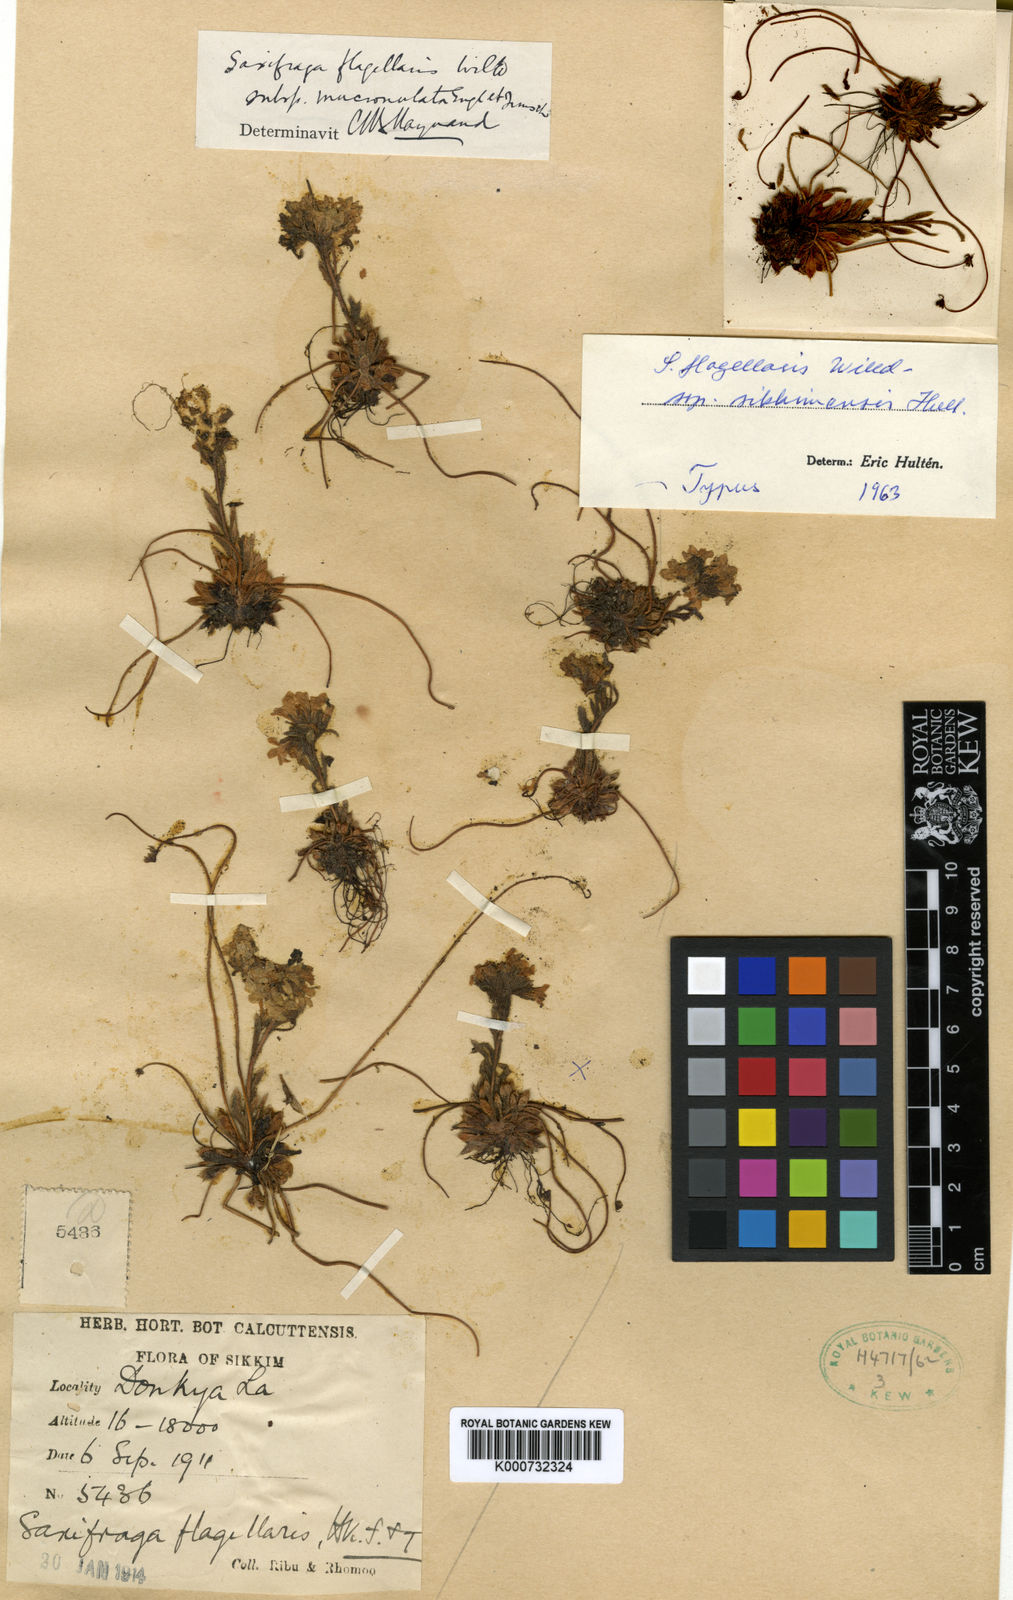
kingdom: Plantae
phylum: Tracheophyta
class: Magnoliopsida
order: Saxifragales
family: Saxifragaceae
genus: Saxifraga
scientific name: Saxifraga flagellaris
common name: Spider saxifrage
